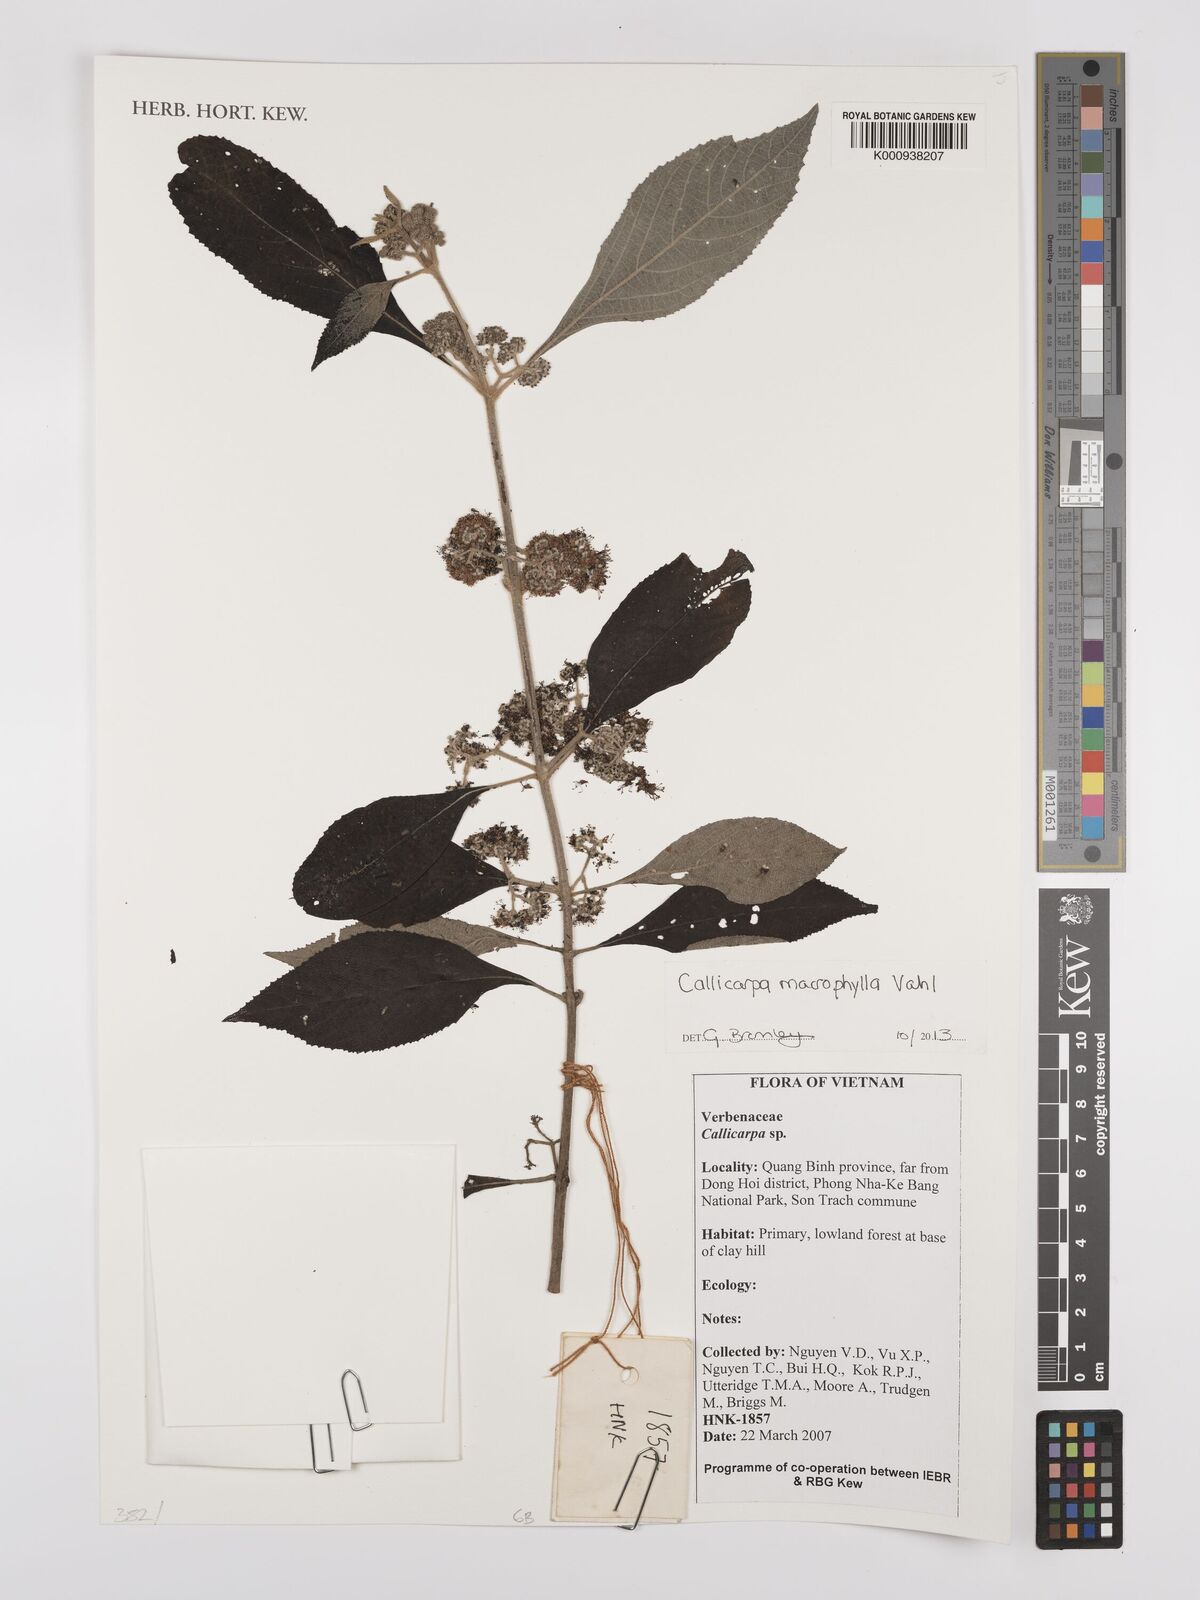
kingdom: Plantae
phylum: Tracheophyta
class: Magnoliopsida
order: Lamiales
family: Lamiaceae
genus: Callicarpa
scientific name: Callicarpa macrophylla
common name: Urn-fruit beauty-berry
